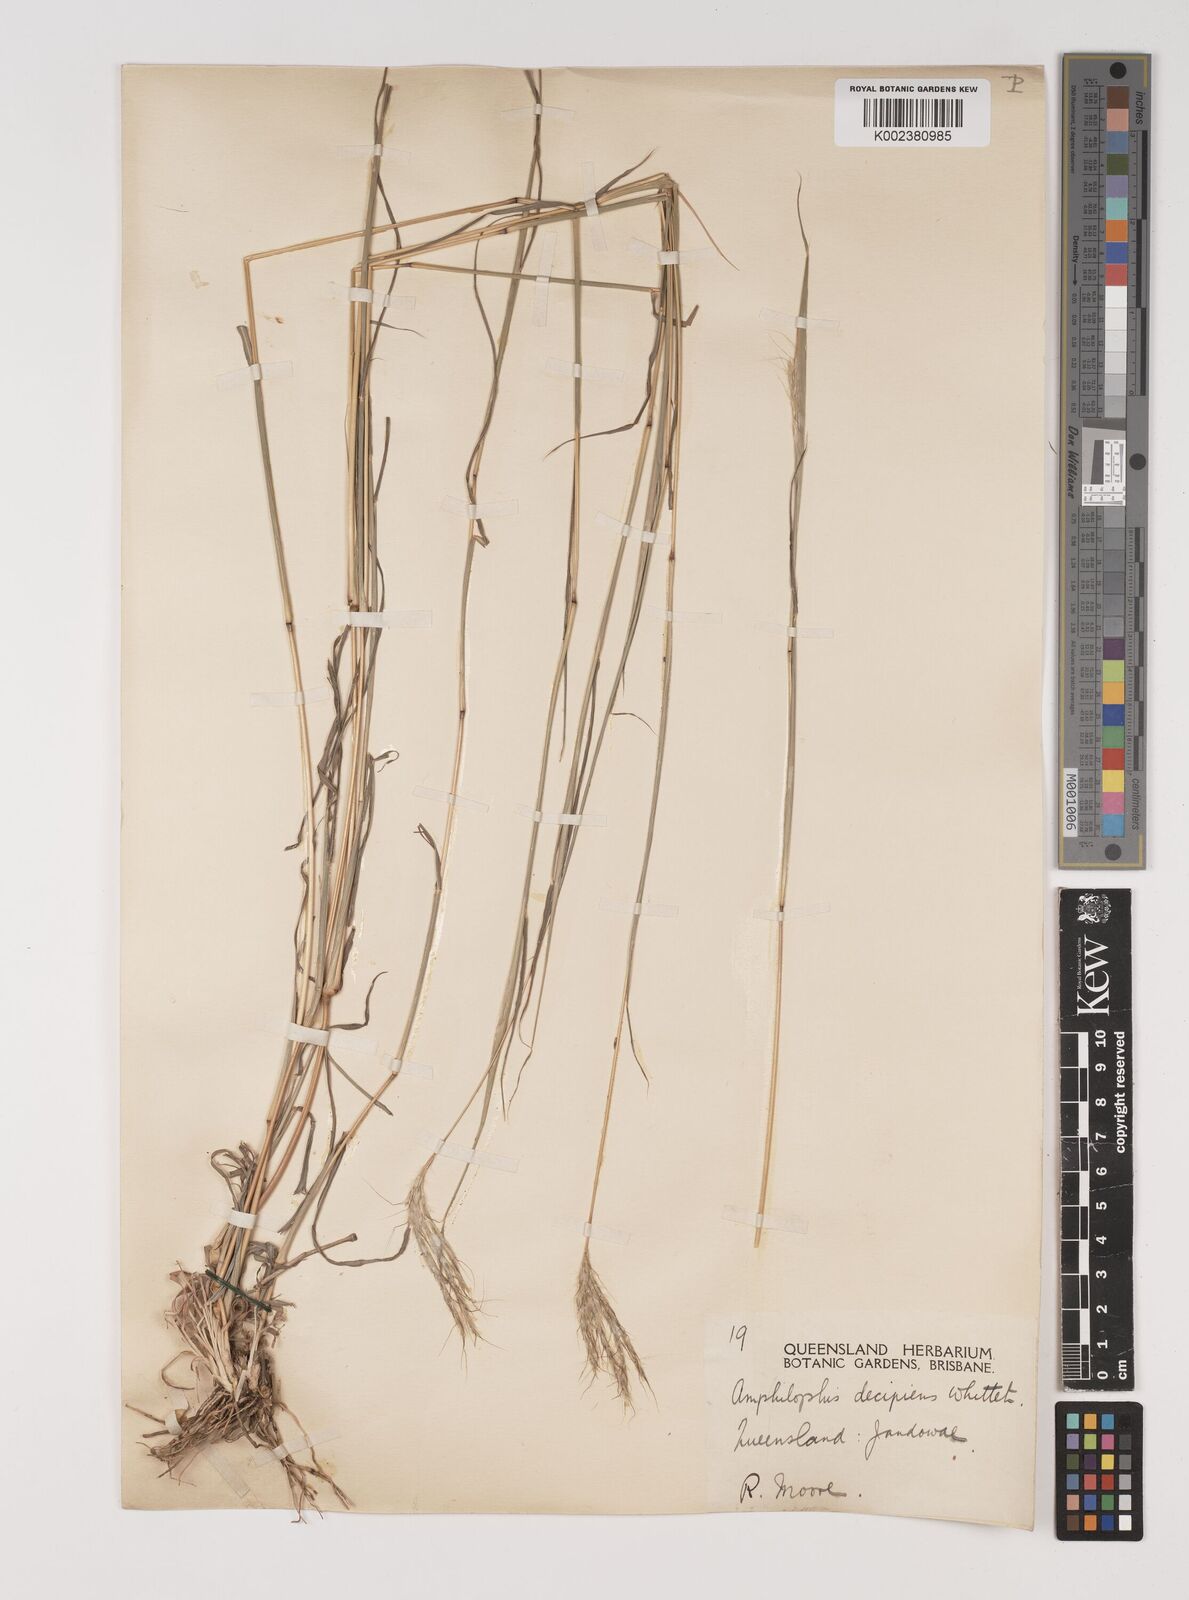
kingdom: Plantae
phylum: Tracheophyta
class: Liliopsida
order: Poales
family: Poaceae
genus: Bothriochloa
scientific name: Bothriochloa decipiens
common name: Pitted-bluegrass
